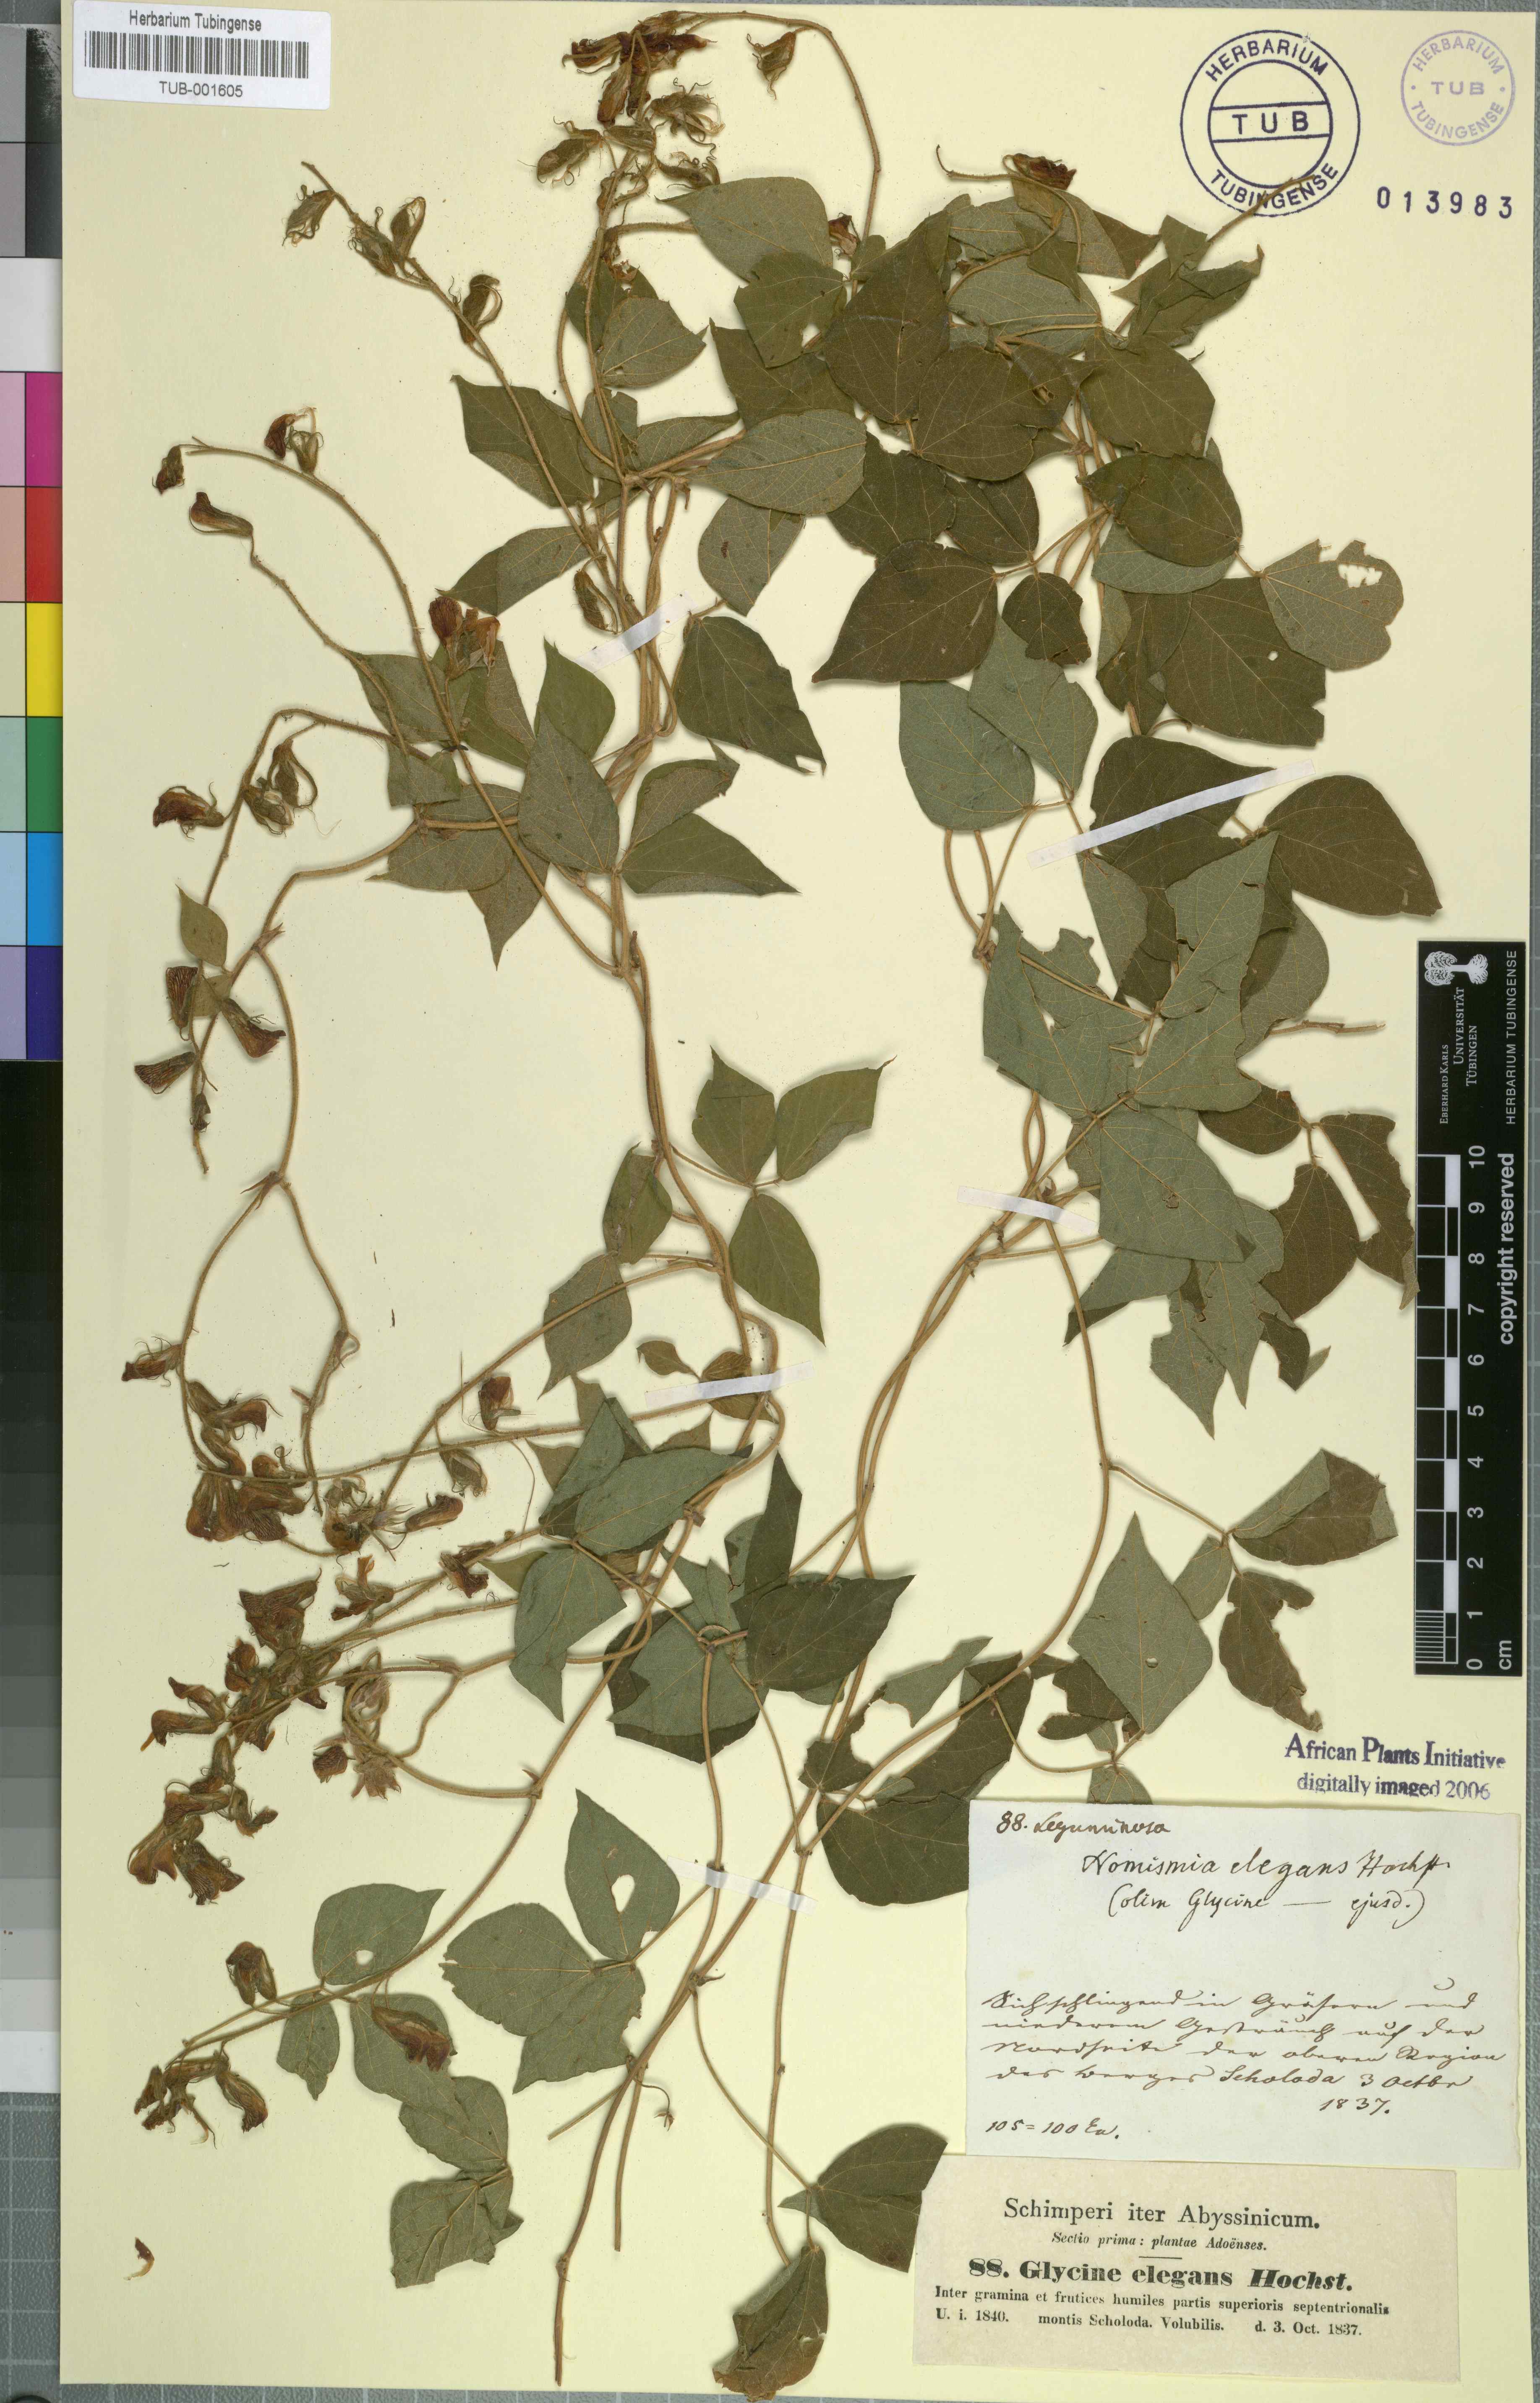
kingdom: Plantae
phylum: Tracheophyta
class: Magnoliopsida
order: Fabales
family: Fabaceae
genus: Rhynchosia
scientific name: Rhynchosia elegans
